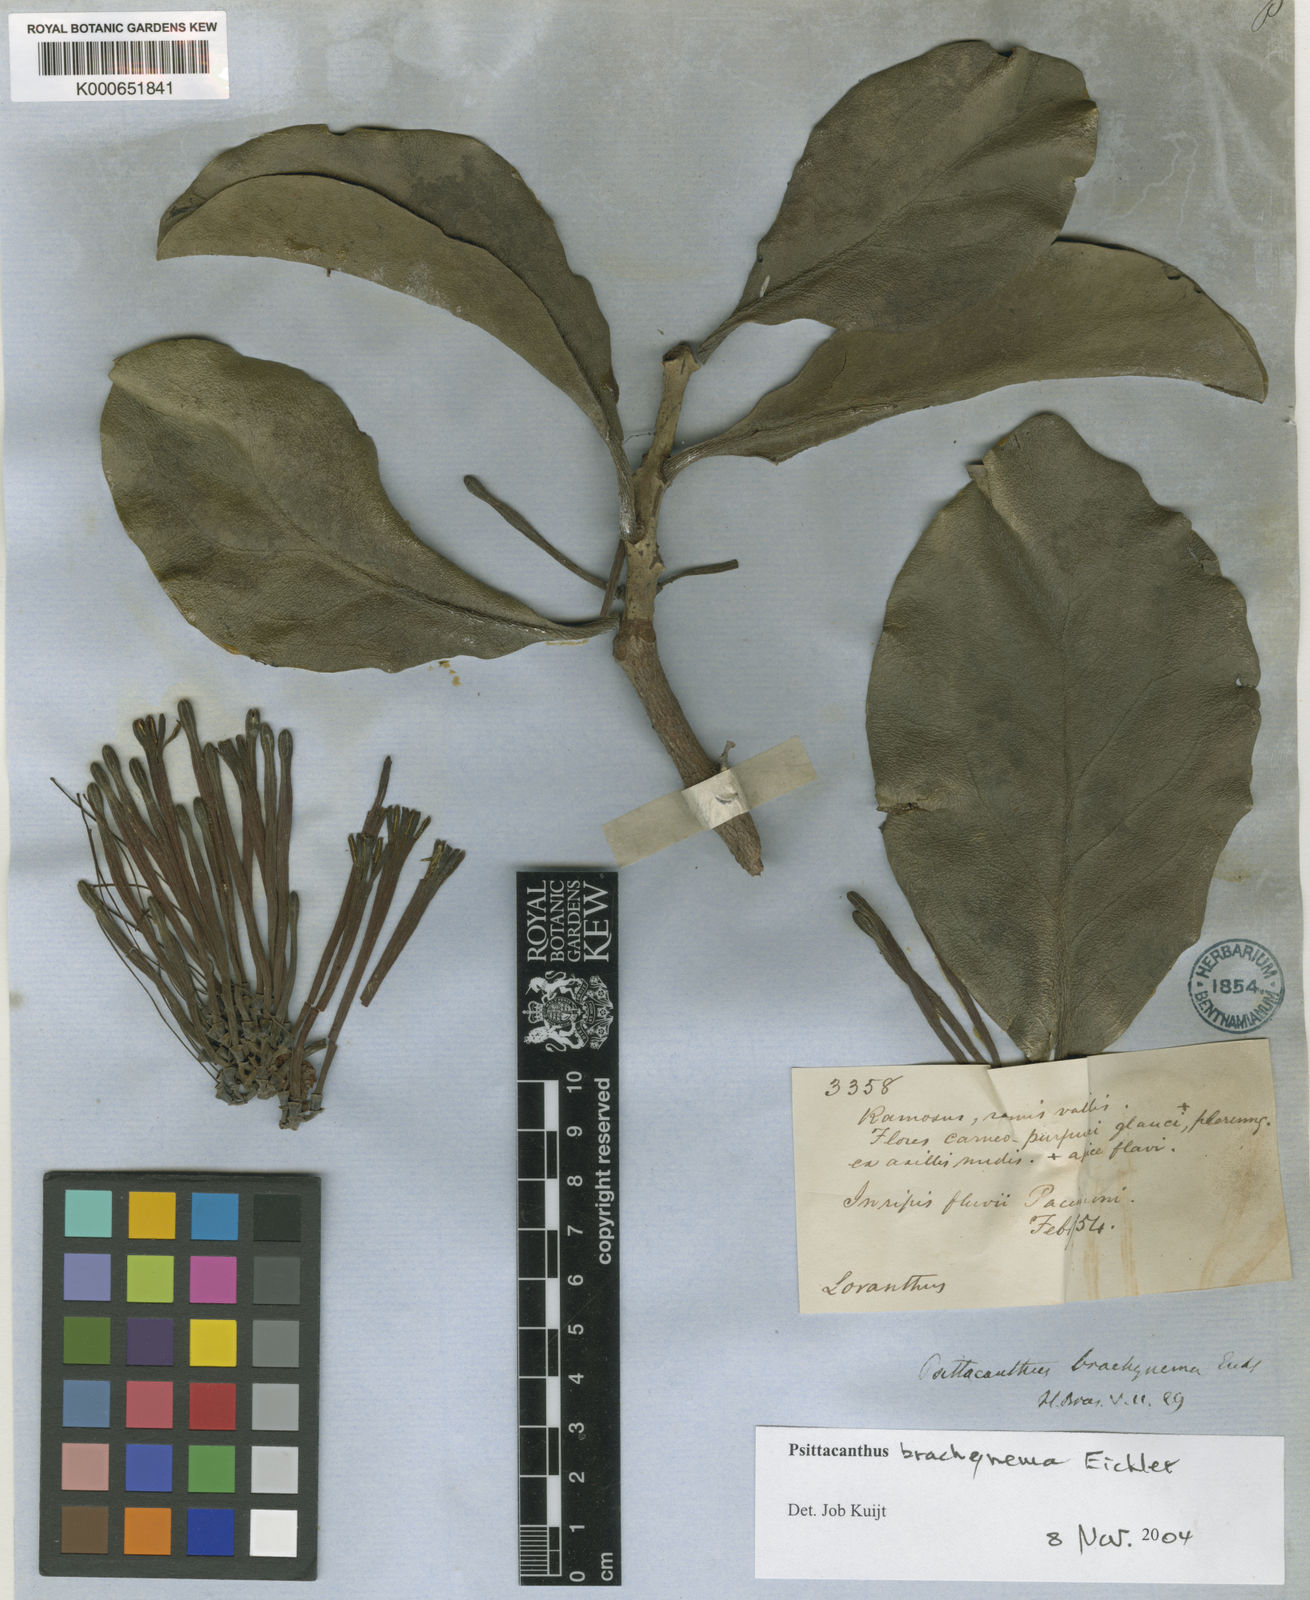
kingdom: Plantae
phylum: Tracheophyta
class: Magnoliopsida
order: Santalales
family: Loranthaceae
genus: Psittacanthus
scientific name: Psittacanthus brachynema
